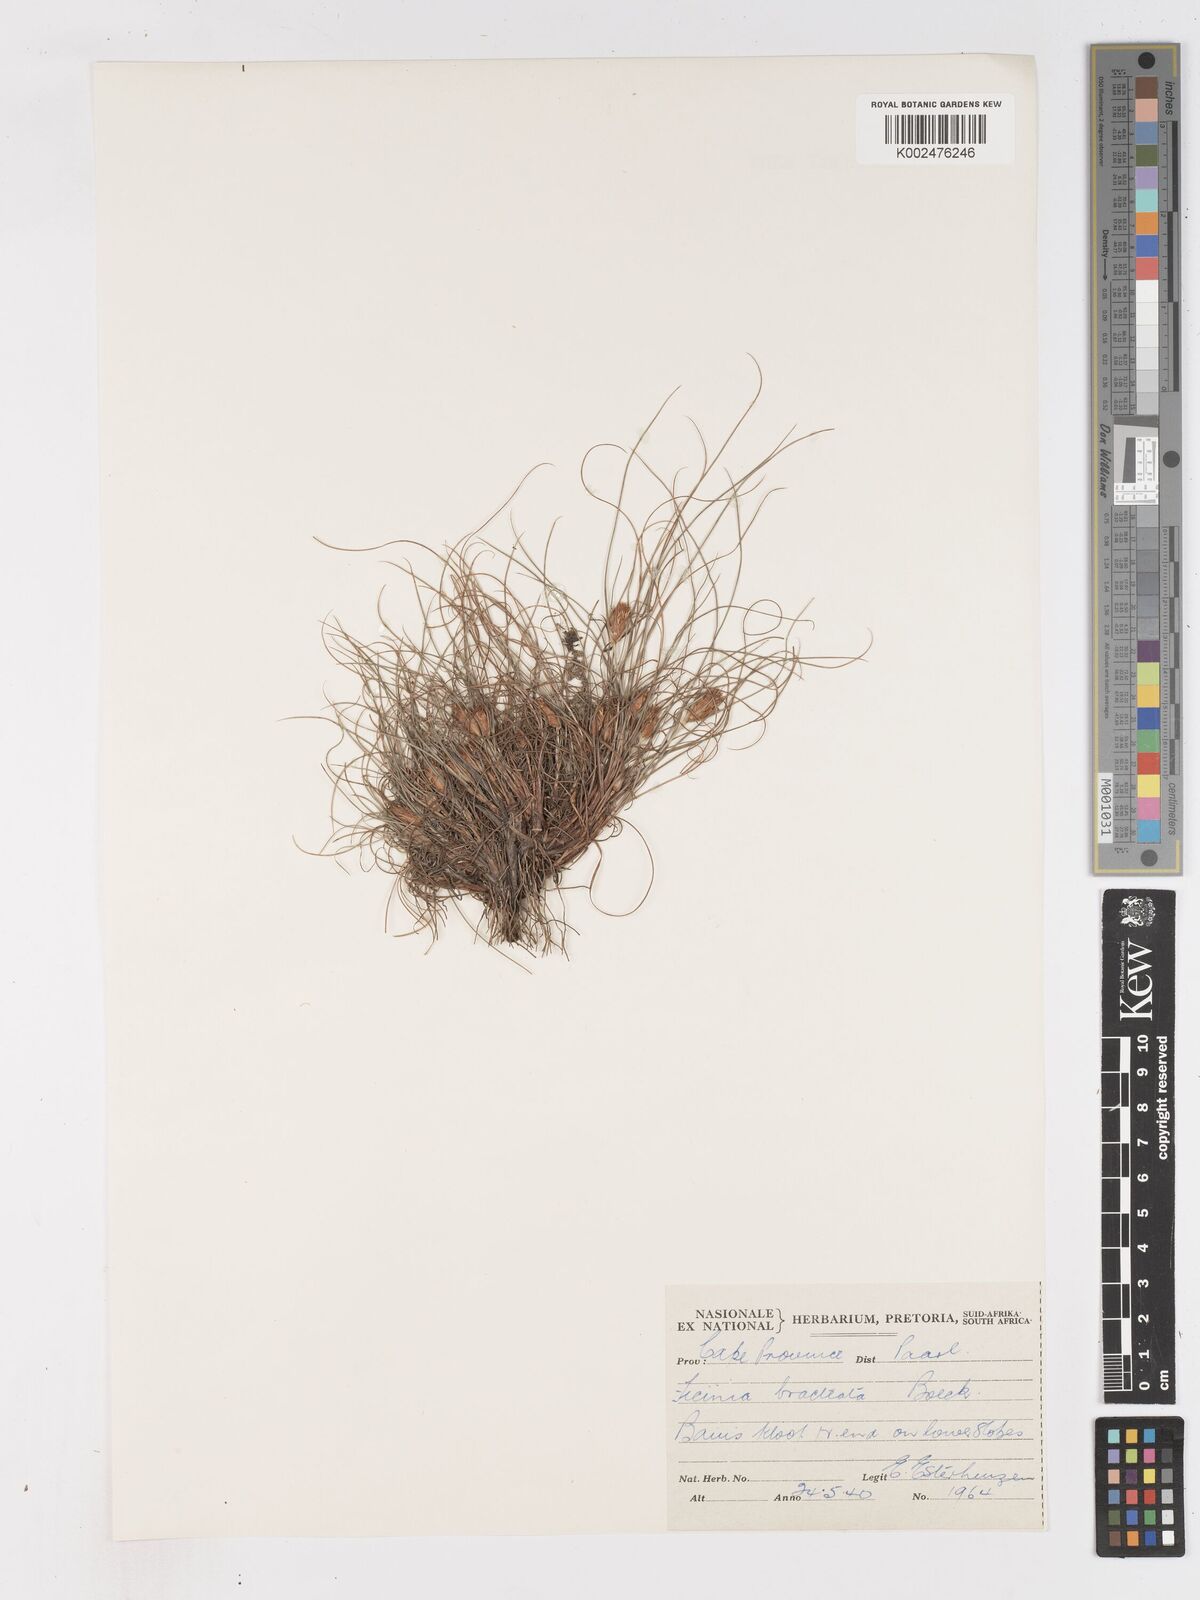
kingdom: Plantae
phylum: Tracheophyta
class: Liliopsida
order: Poales
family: Cyperaceae
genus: Ficinia
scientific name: Ficinia nigrescens
